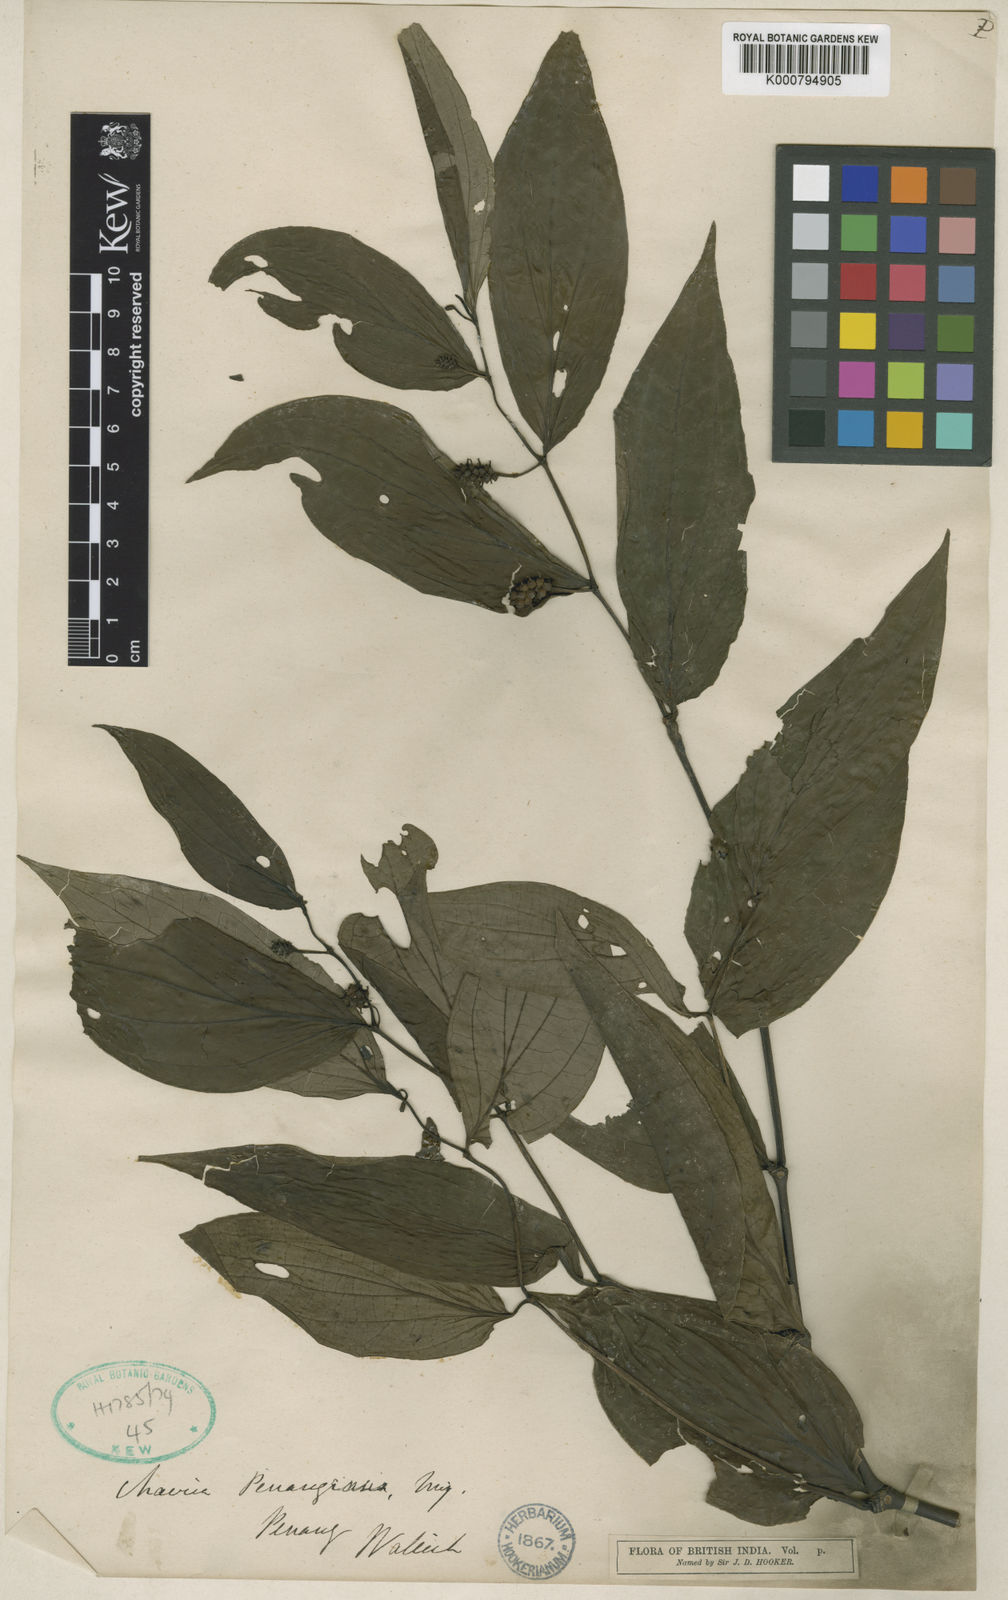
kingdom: Plantae
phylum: Tracheophyta
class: Magnoliopsida
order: Piperales
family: Piperaceae
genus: Piper
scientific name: Piper penangense
